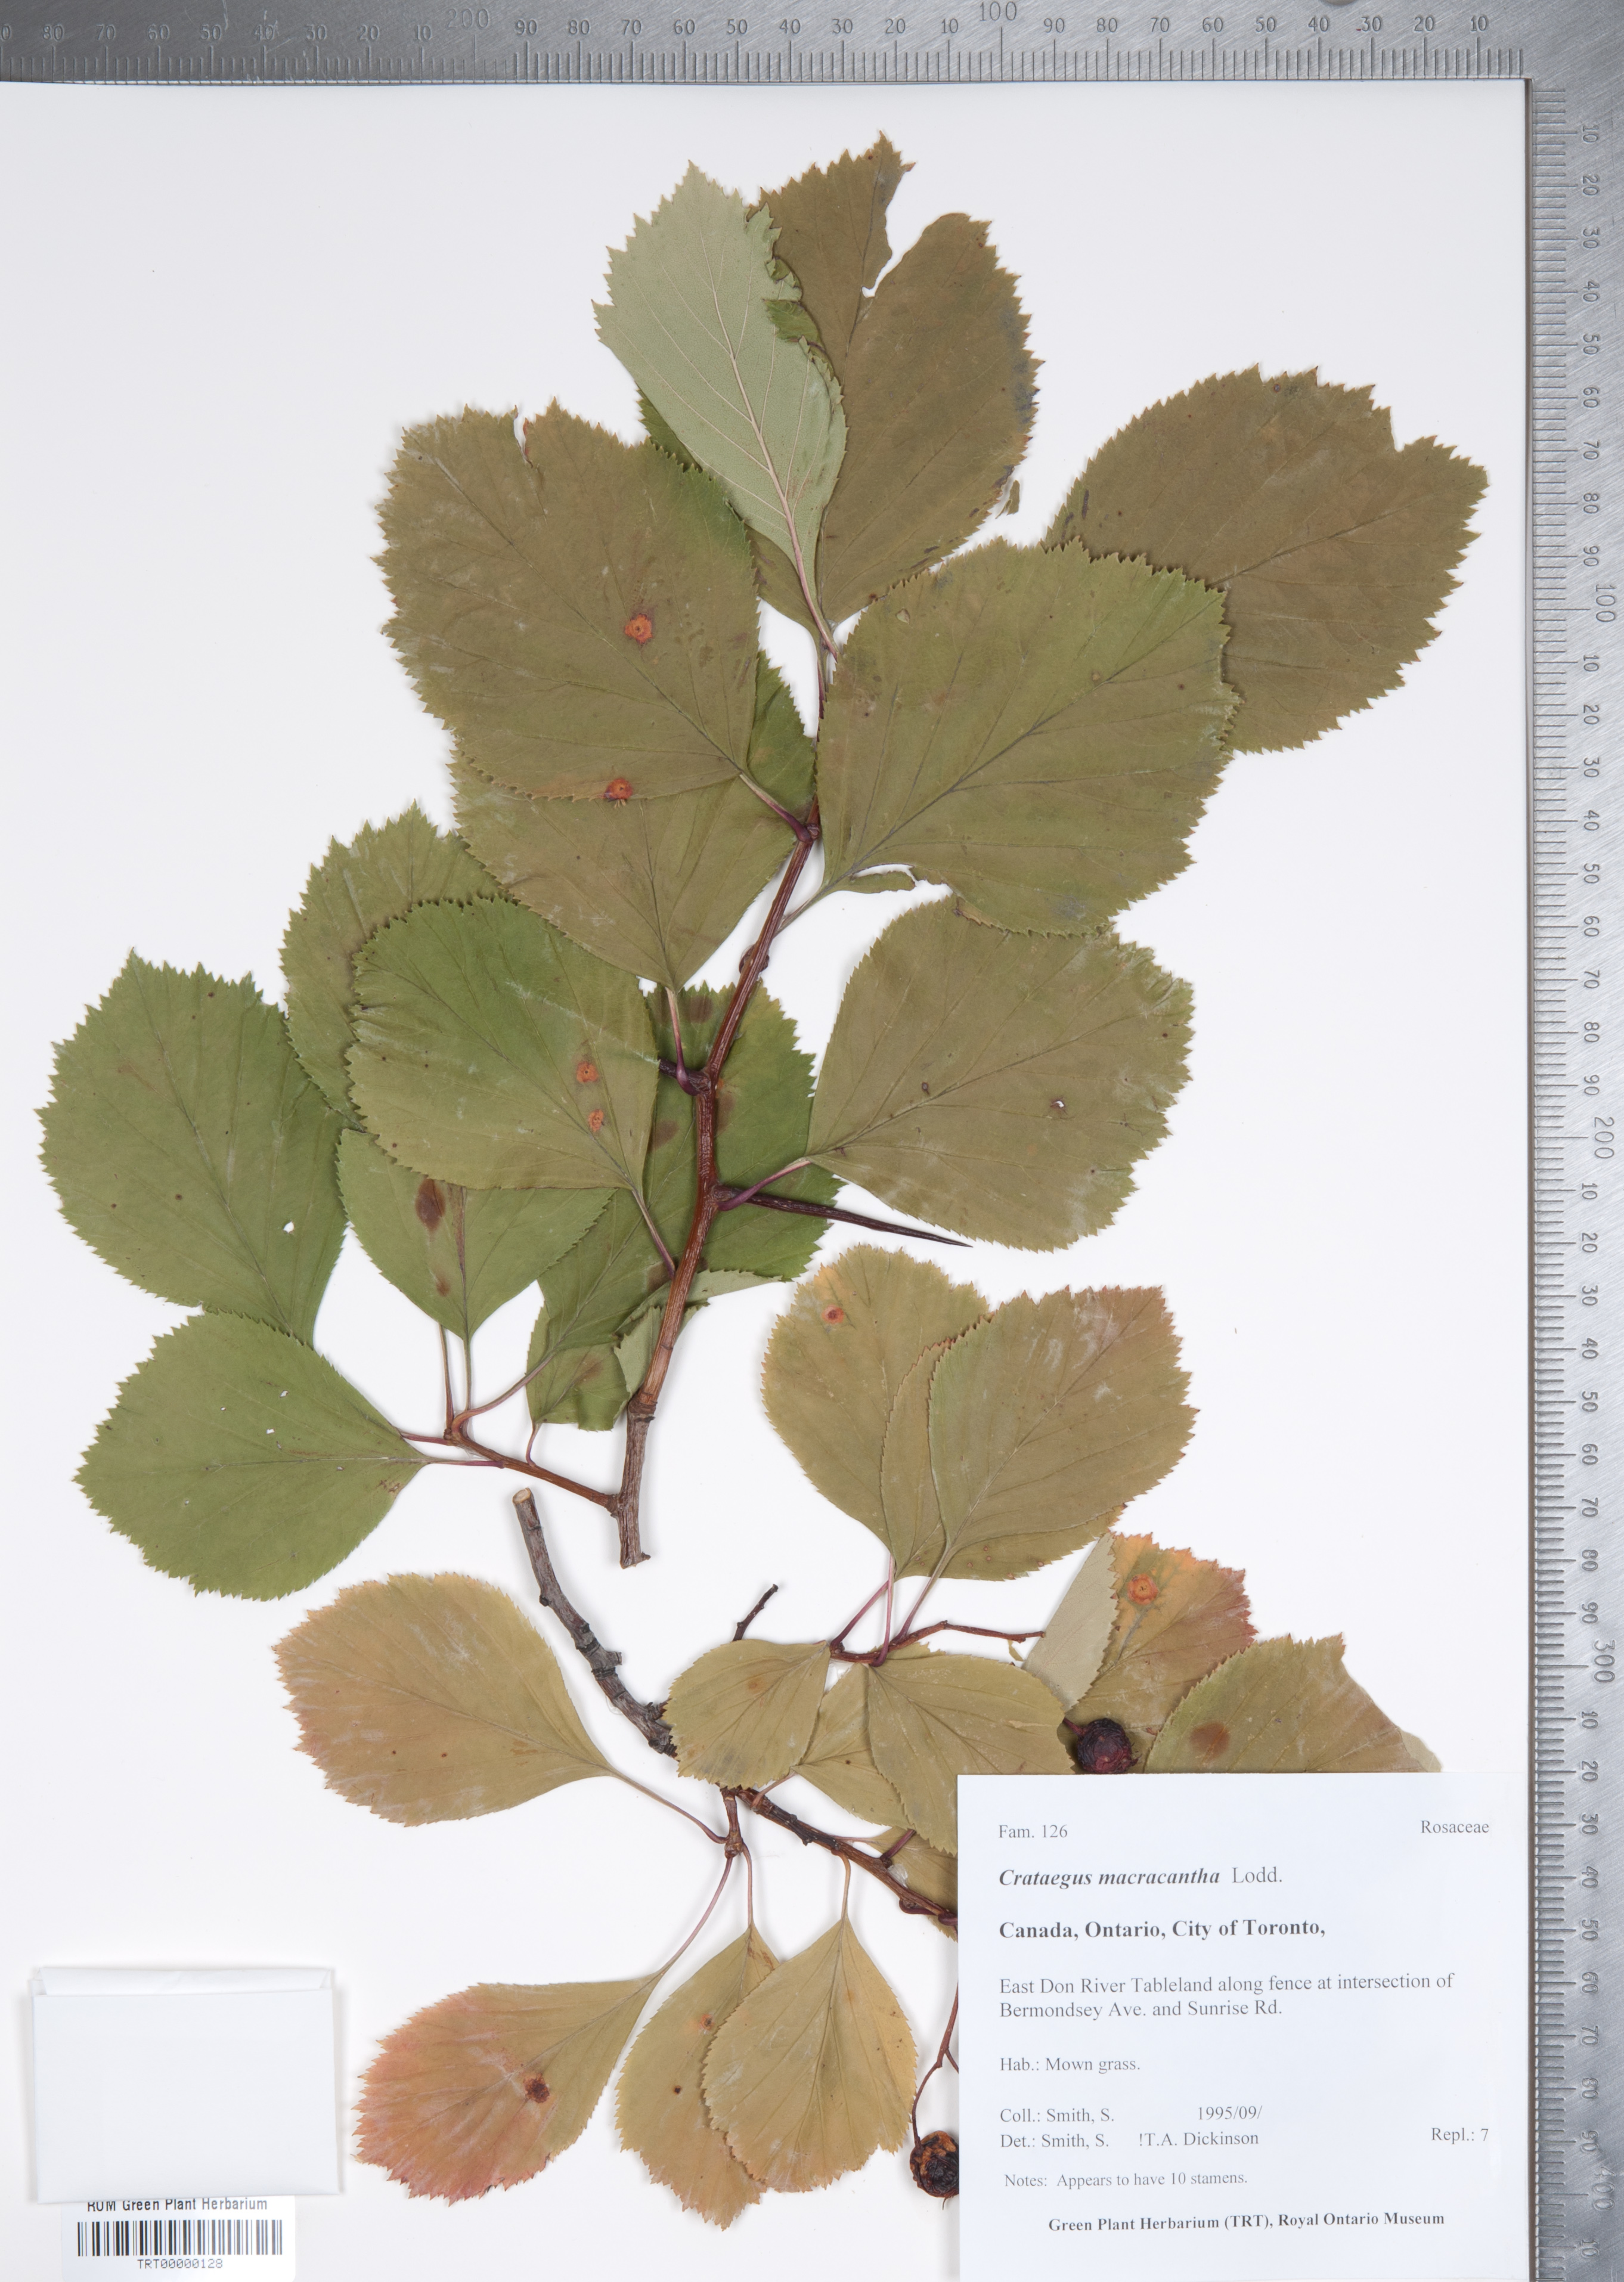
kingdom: Plantae
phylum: Tracheophyta
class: Magnoliopsida
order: Rosales
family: Rosaceae
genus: Crataegus
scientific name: Crataegus macracantha
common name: Large-thorn hawthorn
